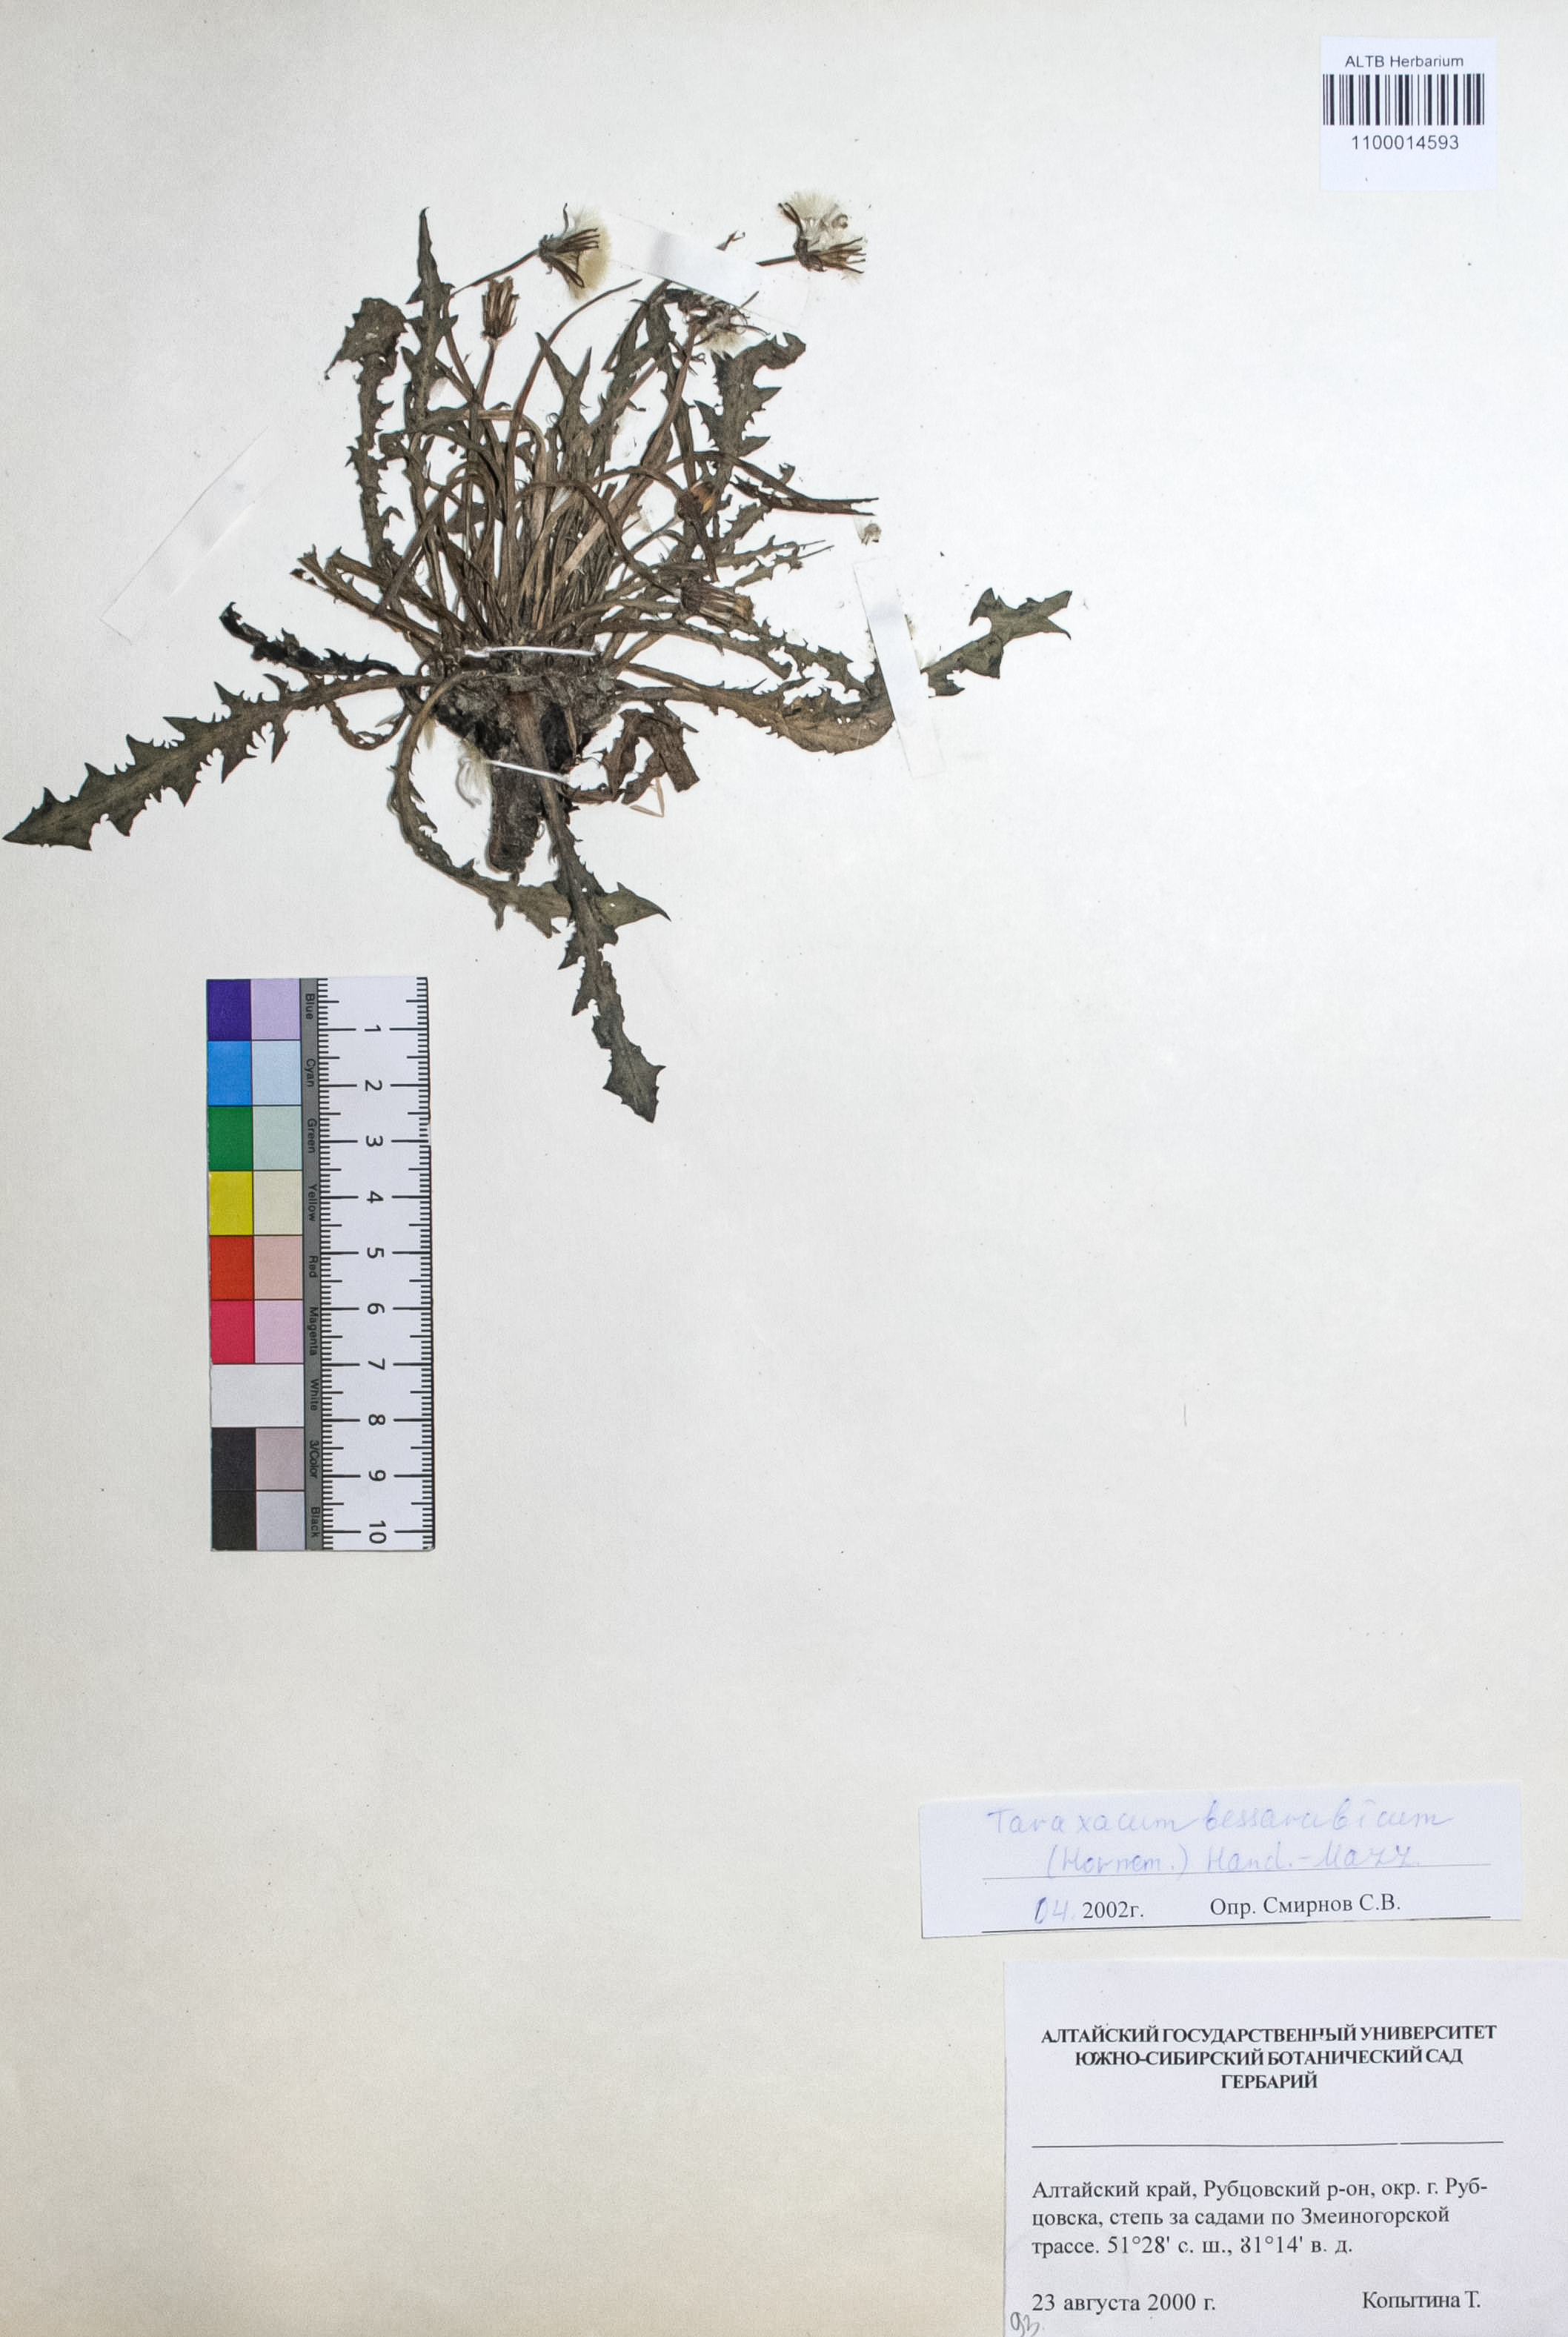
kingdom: Plantae
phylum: Tracheophyta
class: Magnoliopsida
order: Asterales
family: Asteraceae
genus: Taraxacum
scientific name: Taraxacum bessarabicum
